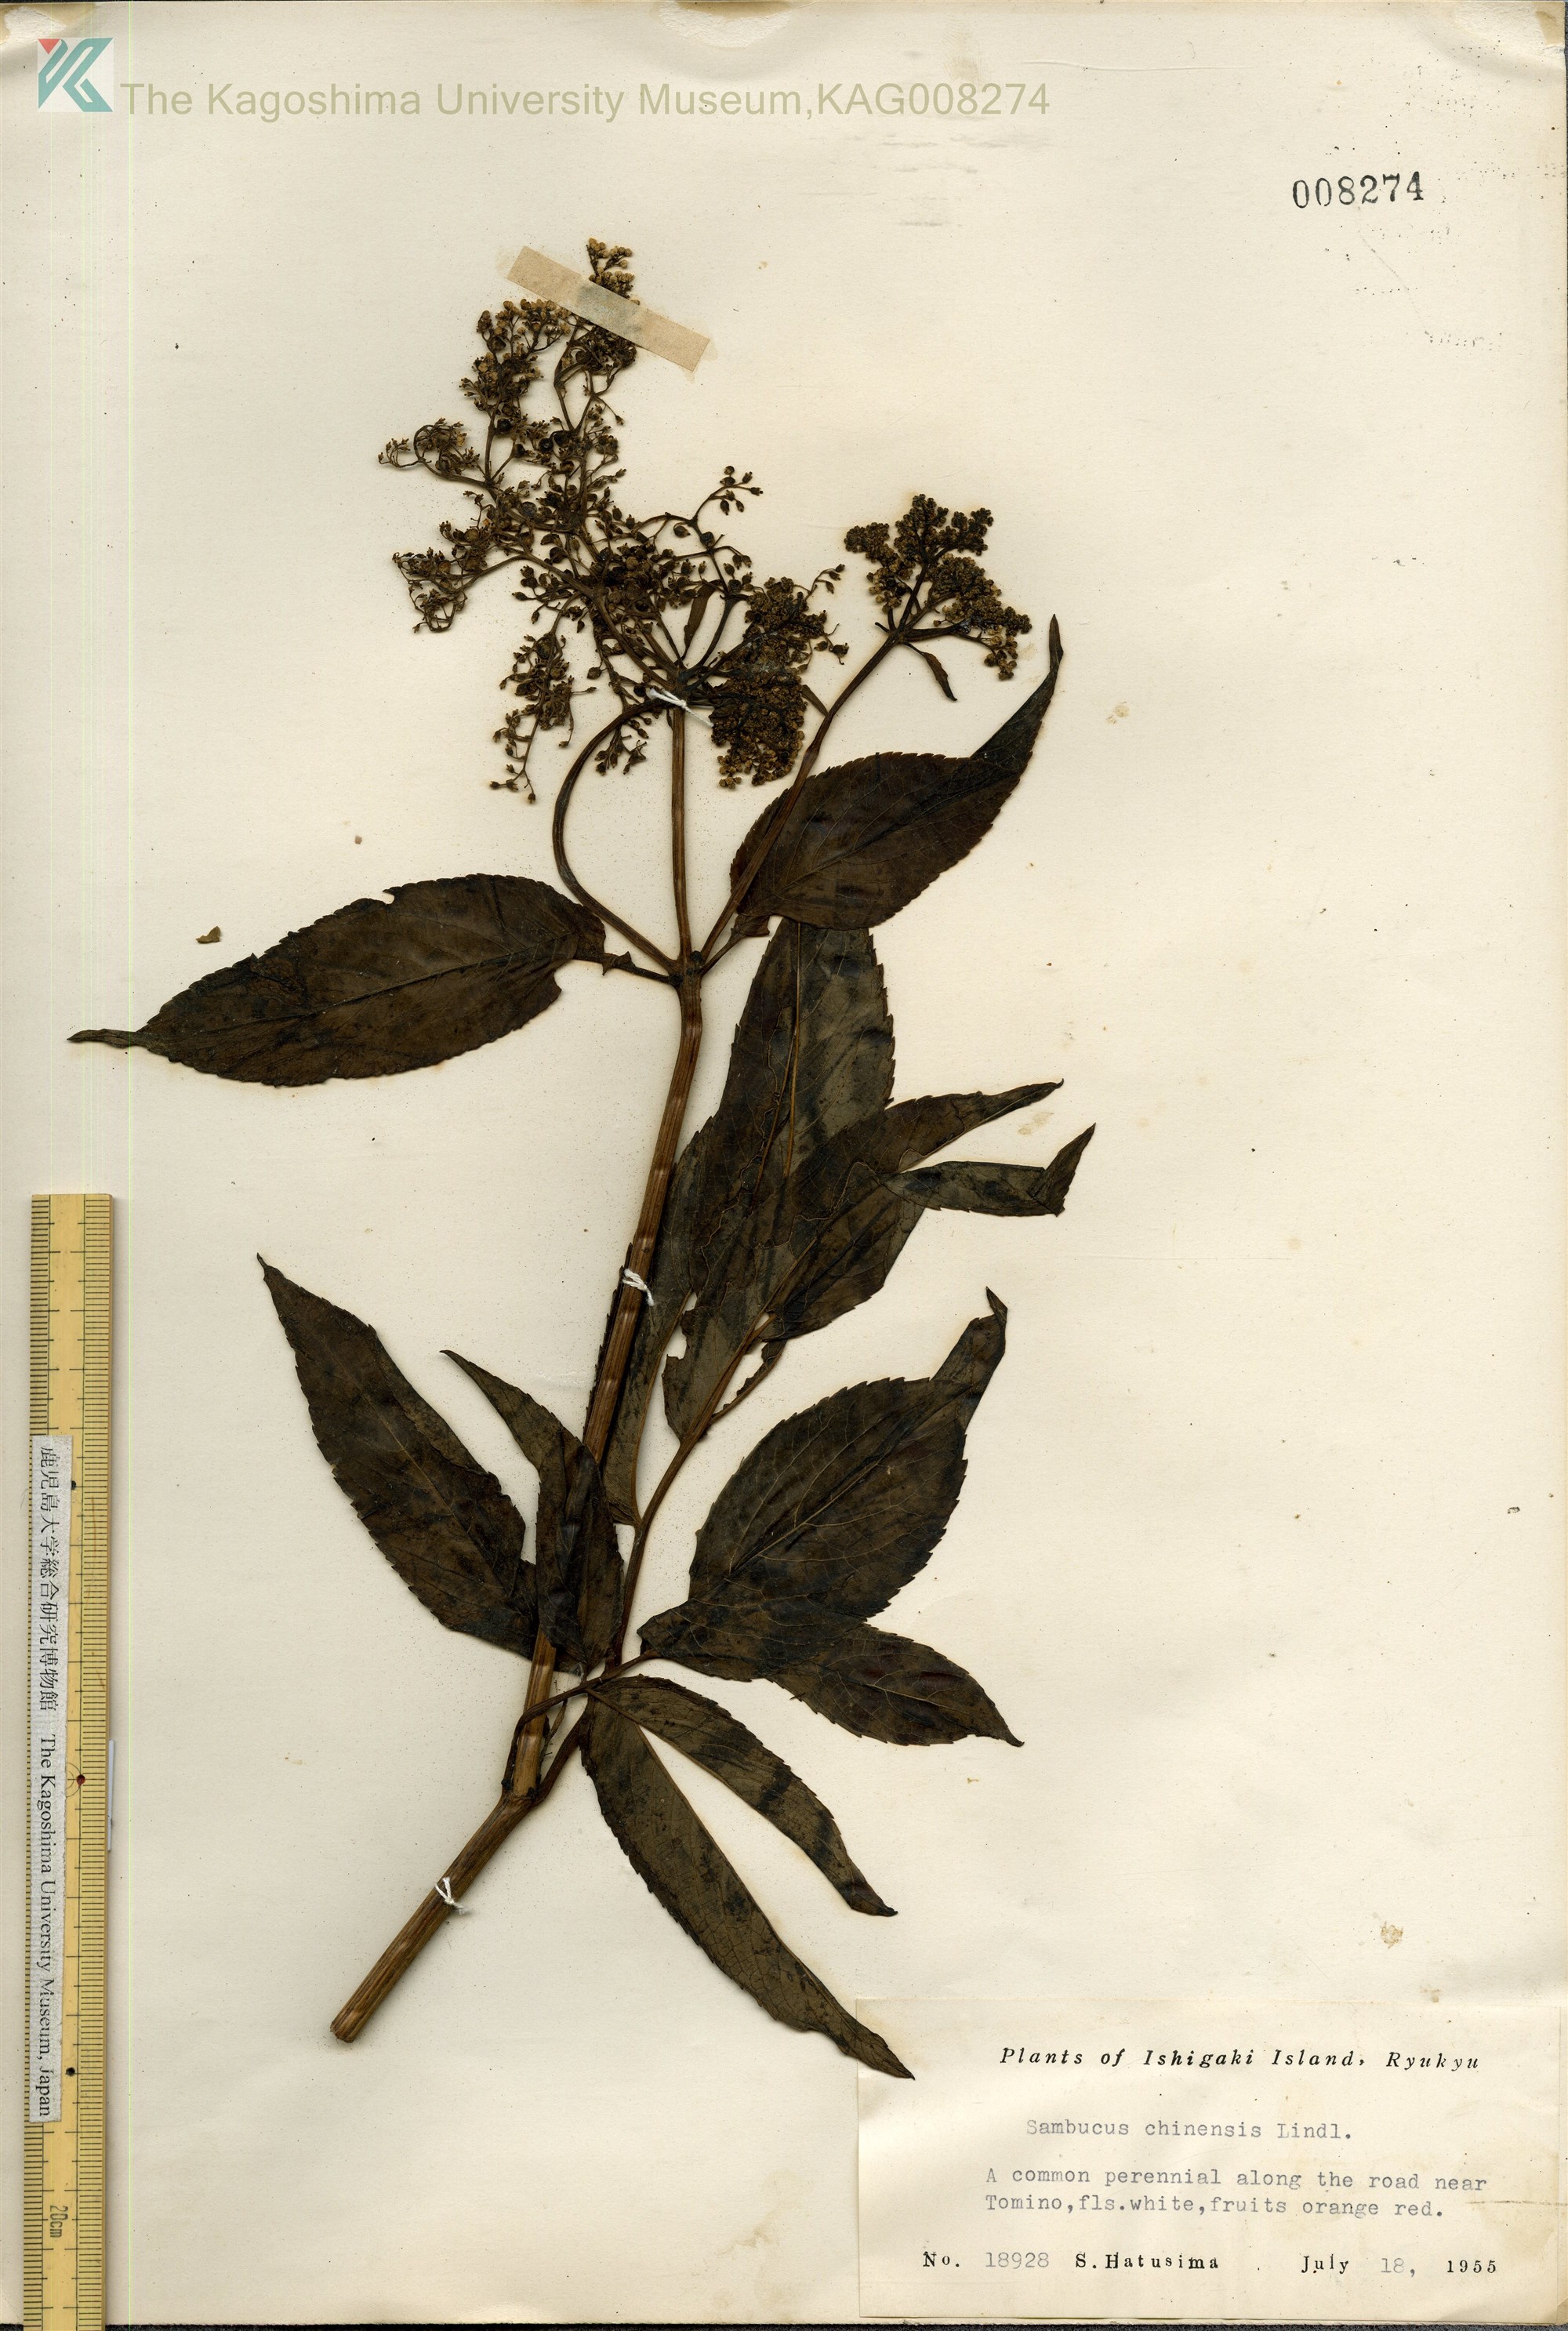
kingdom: Plantae
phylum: Tracheophyta
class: Magnoliopsida
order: Dipsacales
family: Viburnaceae
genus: Sambucus
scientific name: Sambucus javanica
